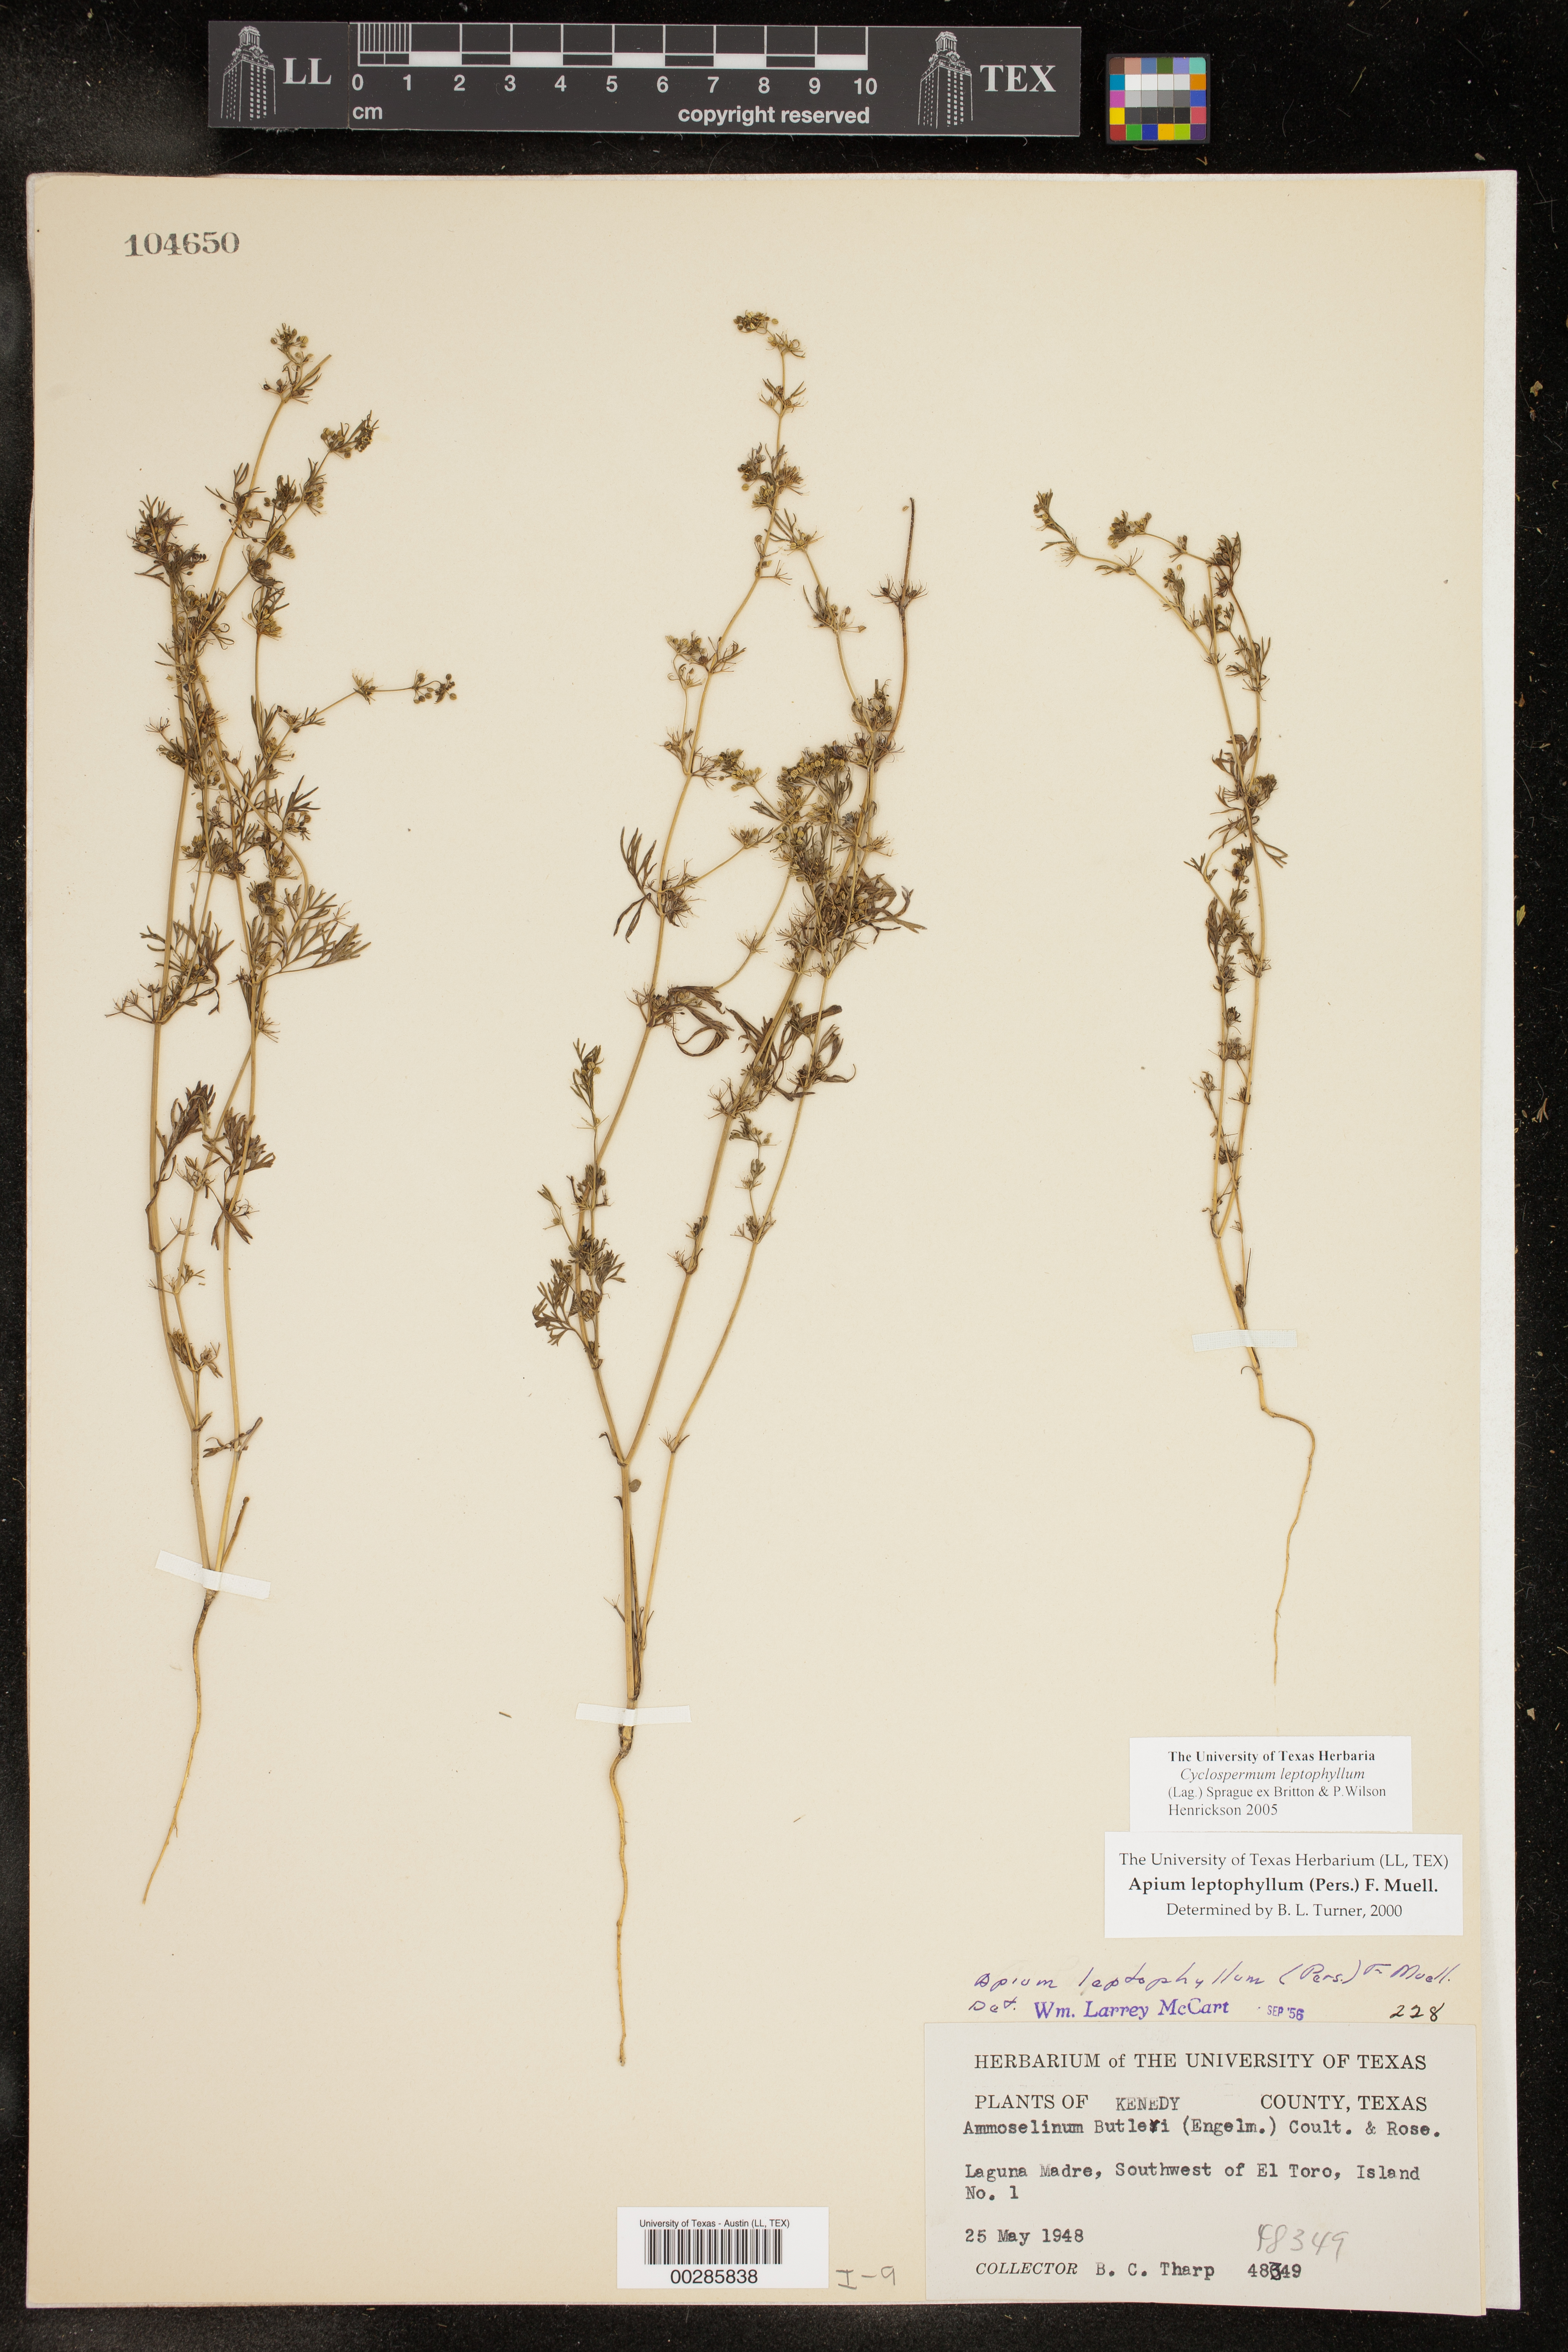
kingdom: Plantae
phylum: Tracheophyta
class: Magnoliopsida
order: Apiales
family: Apiaceae
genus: Cyclospermum
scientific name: Cyclospermum leptophyllum
